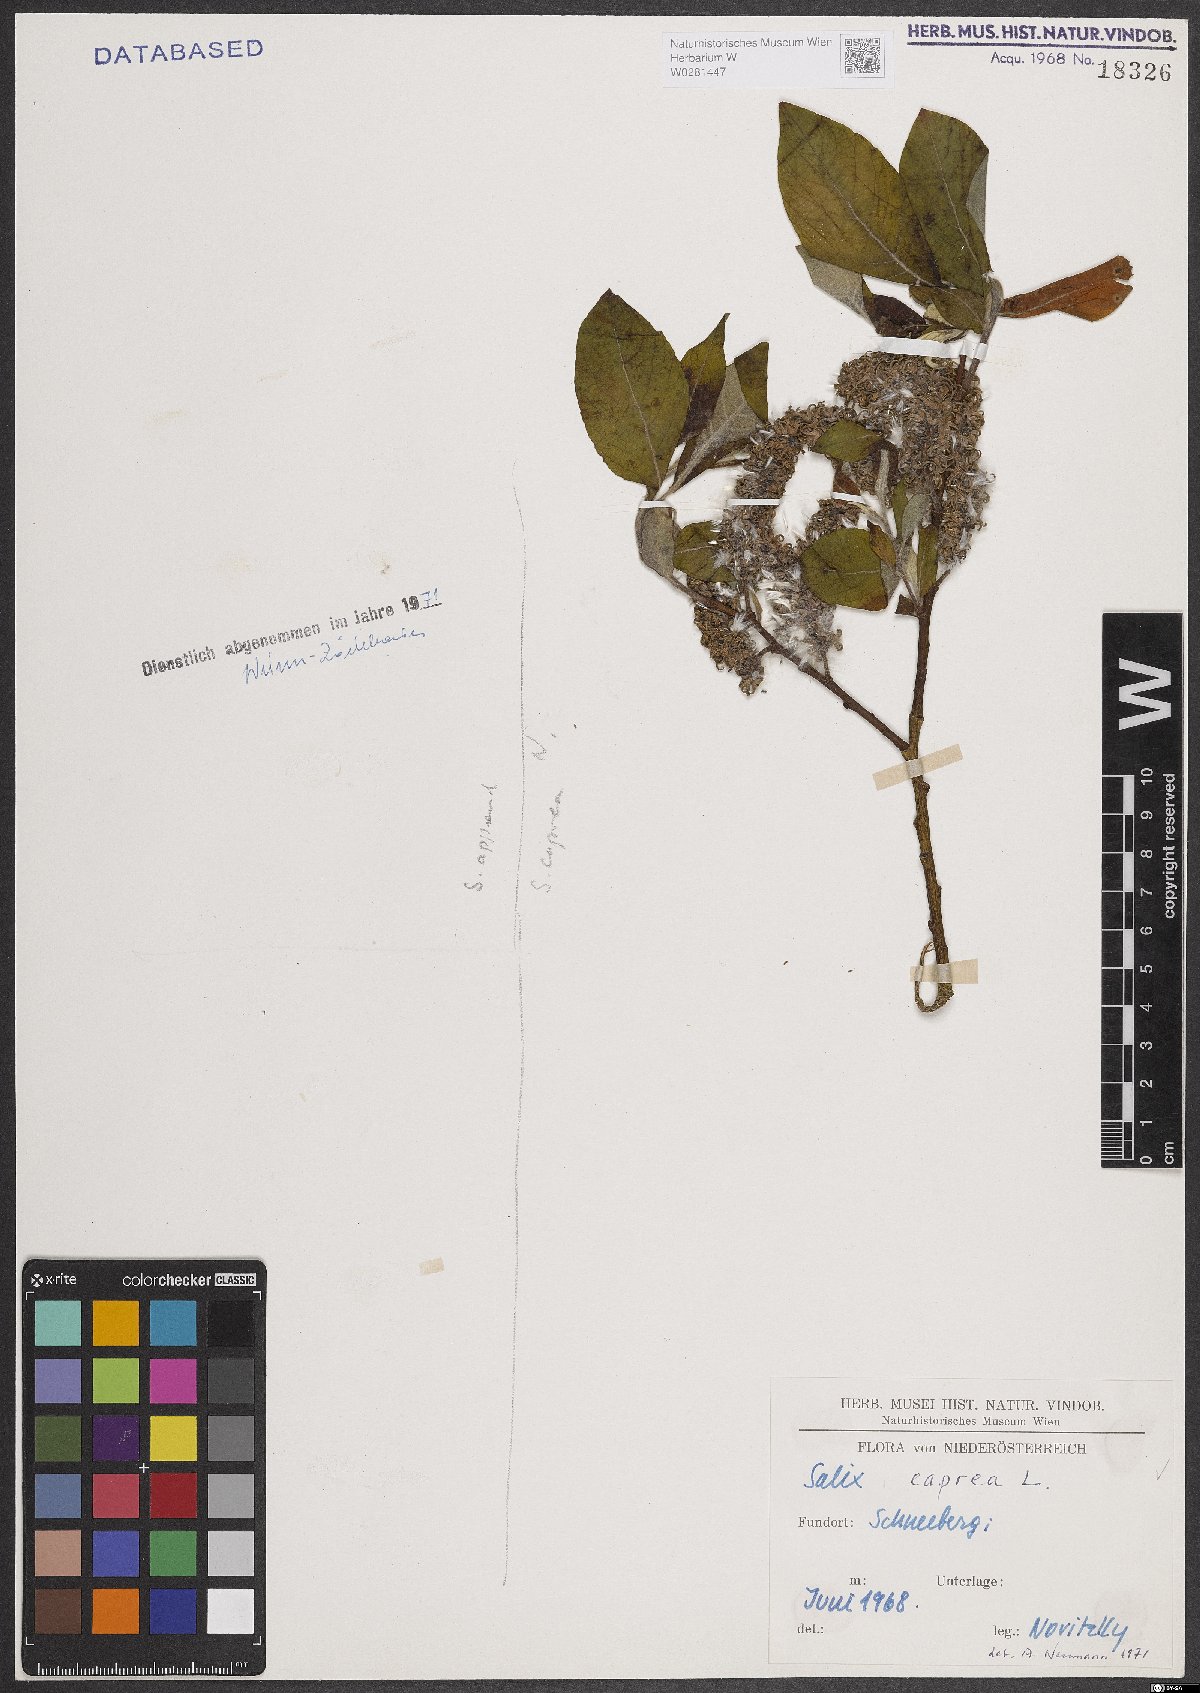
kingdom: Plantae
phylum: Tracheophyta
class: Magnoliopsida
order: Malpighiales
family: Salicaceae
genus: Salix
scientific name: Salix caprea
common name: Goat willow
